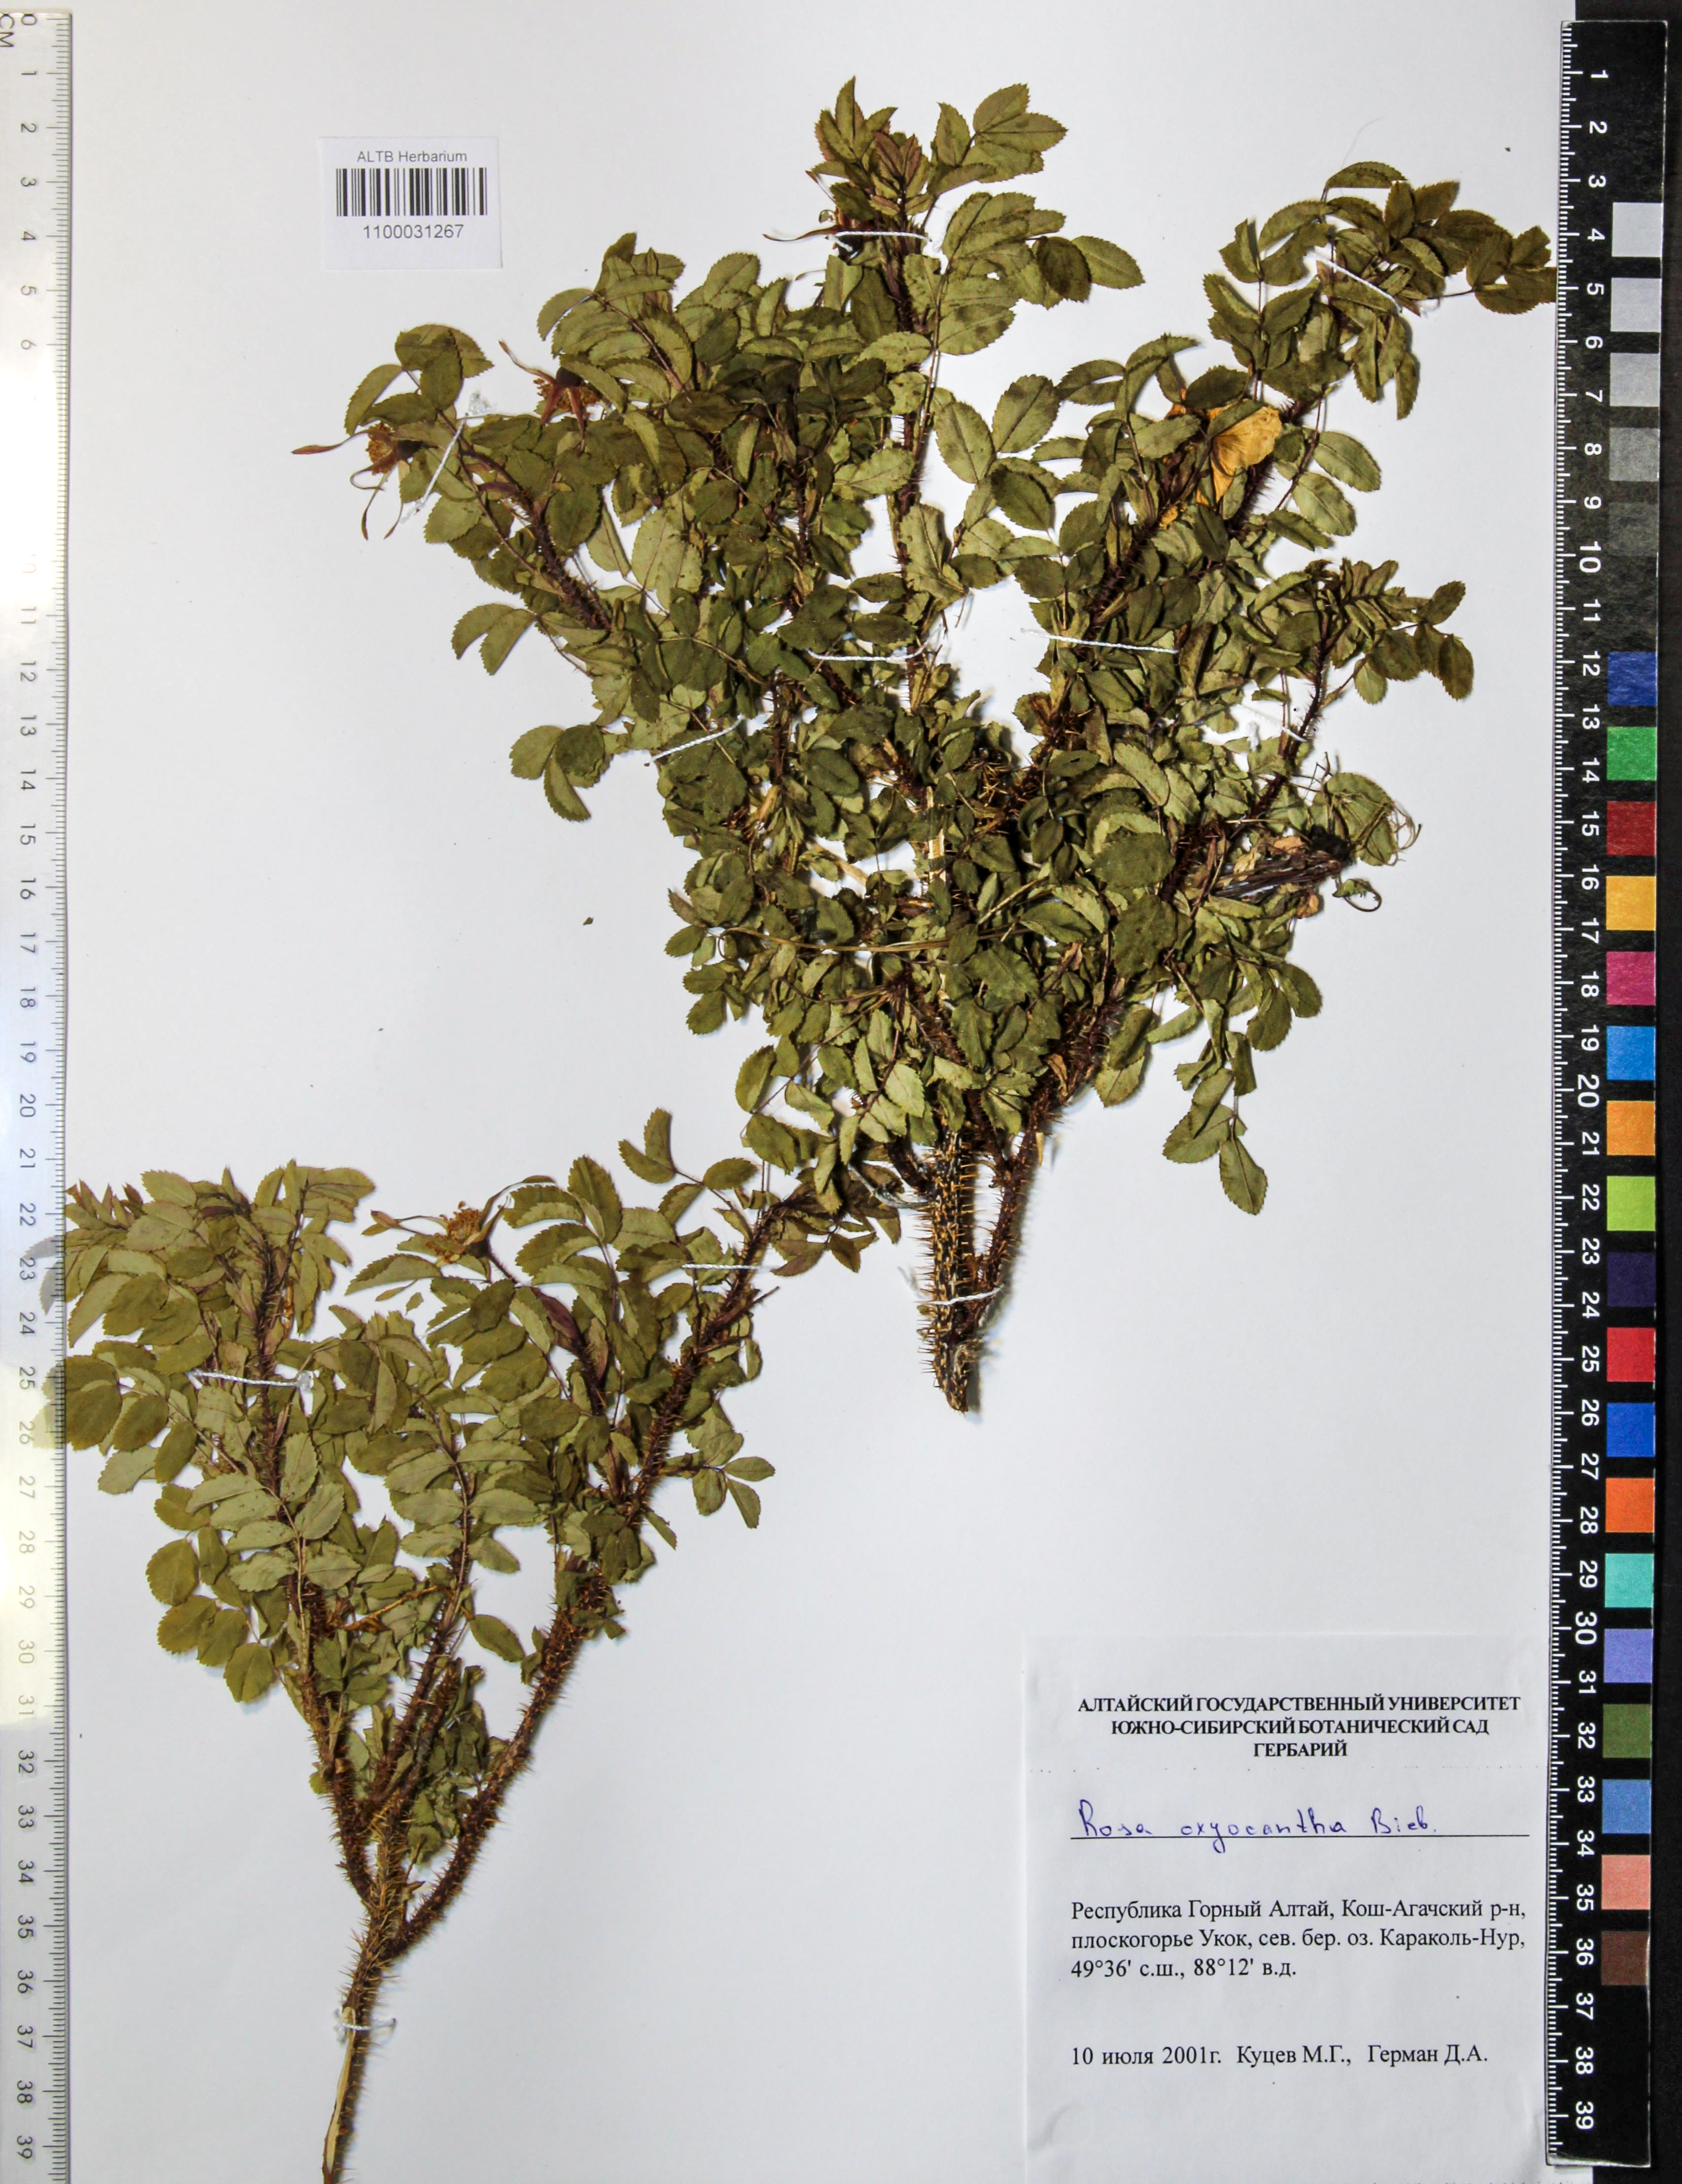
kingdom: Plantae
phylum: Tracheophyta
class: Magnoliopsida
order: Rosales
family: Rosaceae
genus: Rosa
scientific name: Rosa oxyacantha
